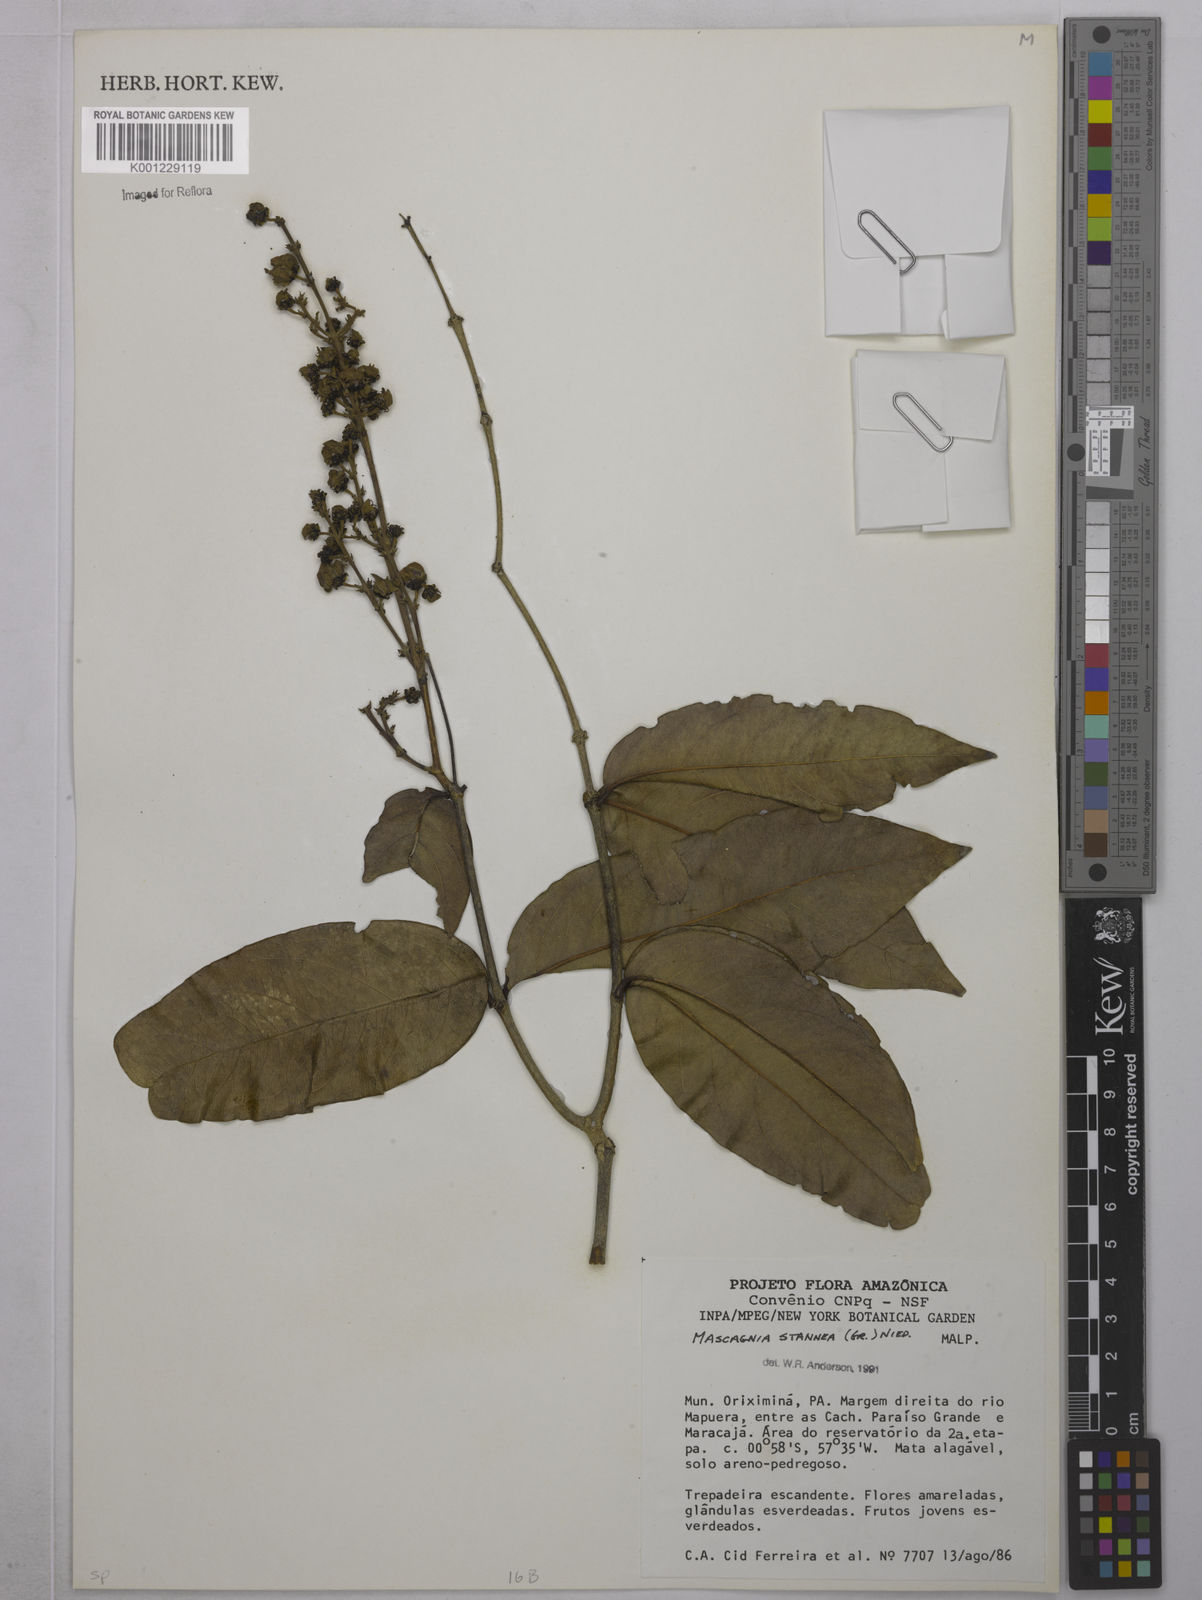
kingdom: Plantae
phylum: Tracheophyta
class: Magnoliopsida
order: Malpighiales
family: Malpighiaceae
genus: Niedenzuella
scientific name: Niedenzuella stannea
